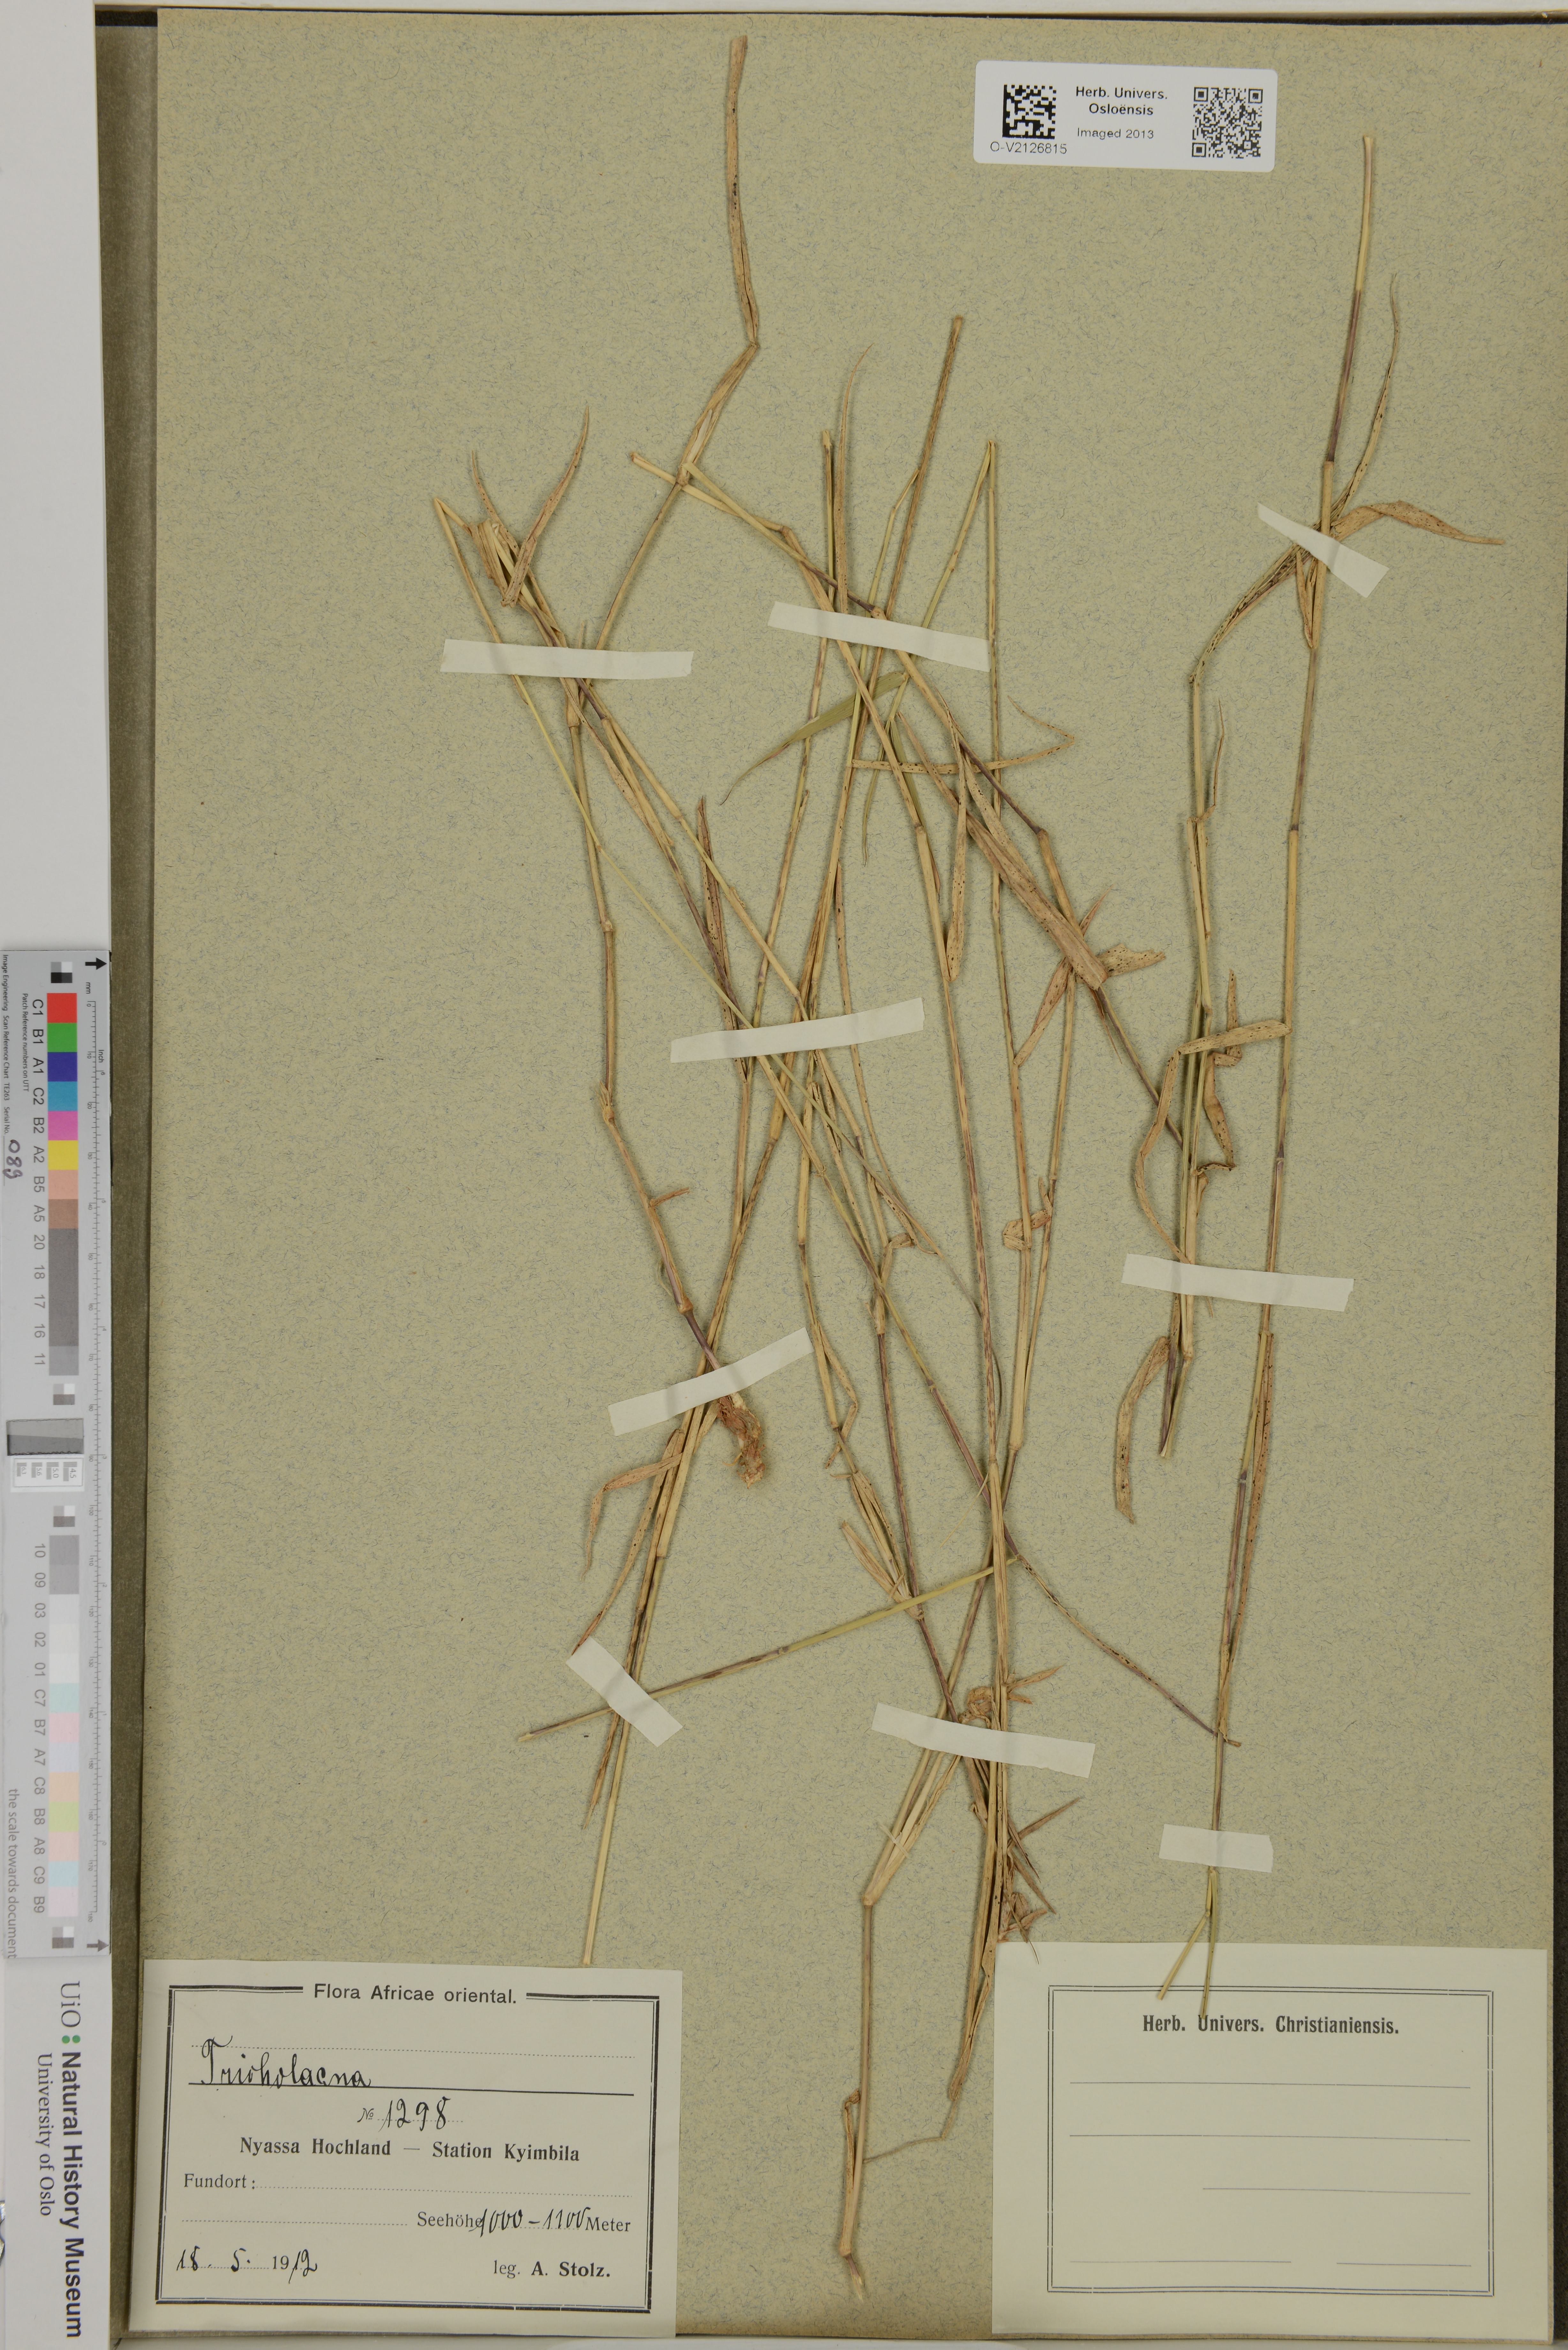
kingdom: Plantae
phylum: Tracheophyta
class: Liliopsida
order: Poales
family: Poaceae
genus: Tricholaena
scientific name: Tricholaena
